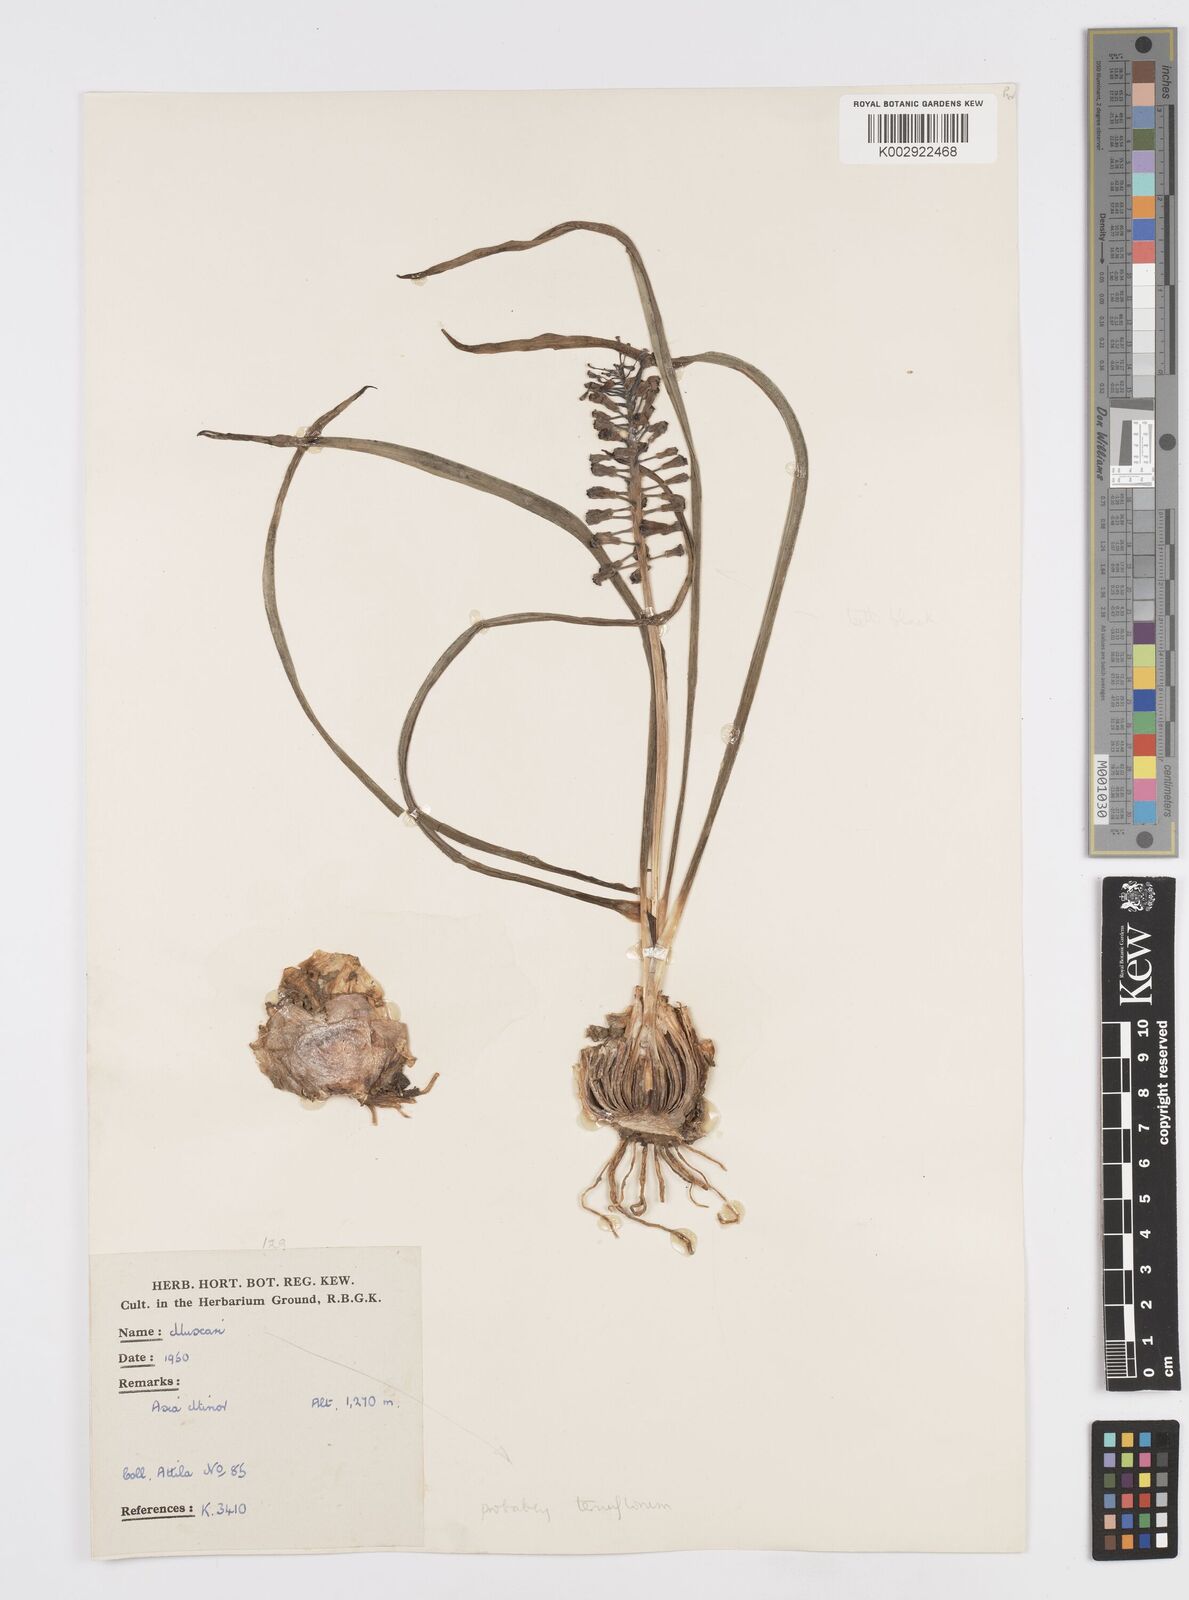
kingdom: Plantae
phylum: Tracheophyta
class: Liliopsida
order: Asparagales
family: Asparagaceae
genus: Muscari
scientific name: Muscari tenuiflorum
